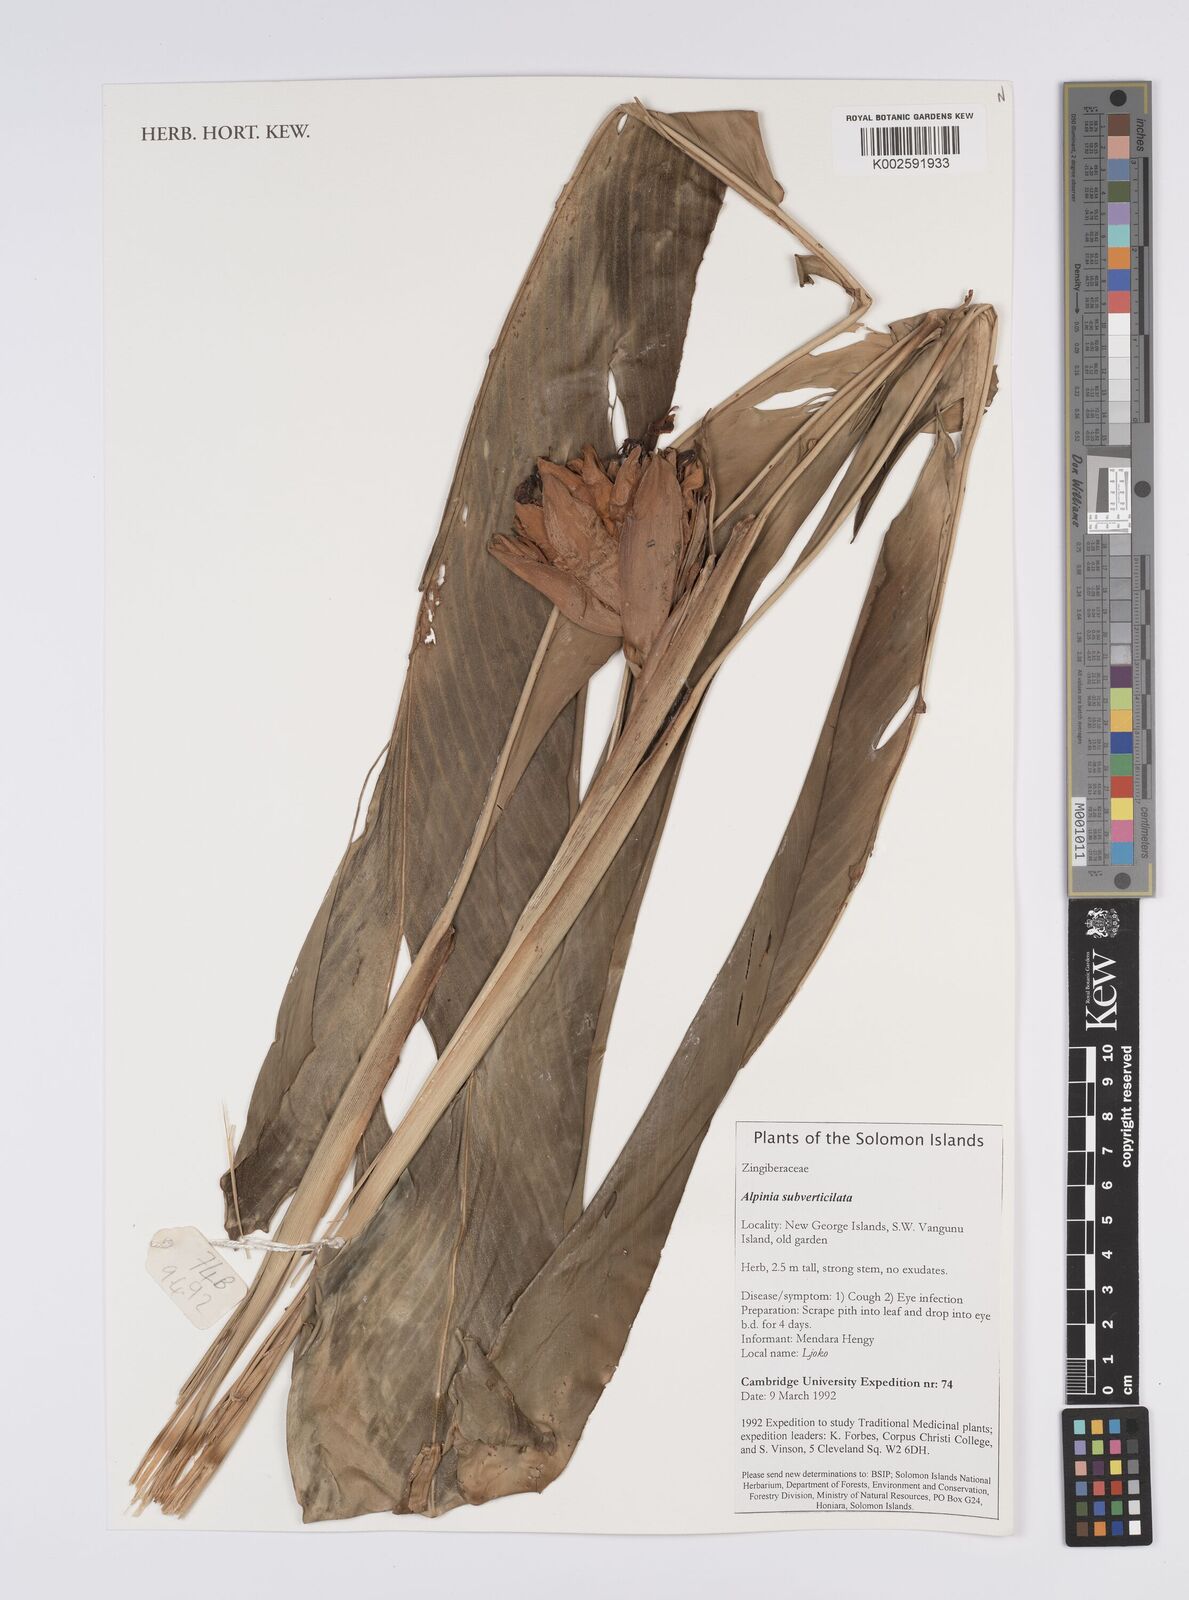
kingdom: Plantae
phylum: Tracheophyta
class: Liliopsida
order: Zingiberales
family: Zingiberaceae
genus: Alpinia
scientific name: Alpinia
